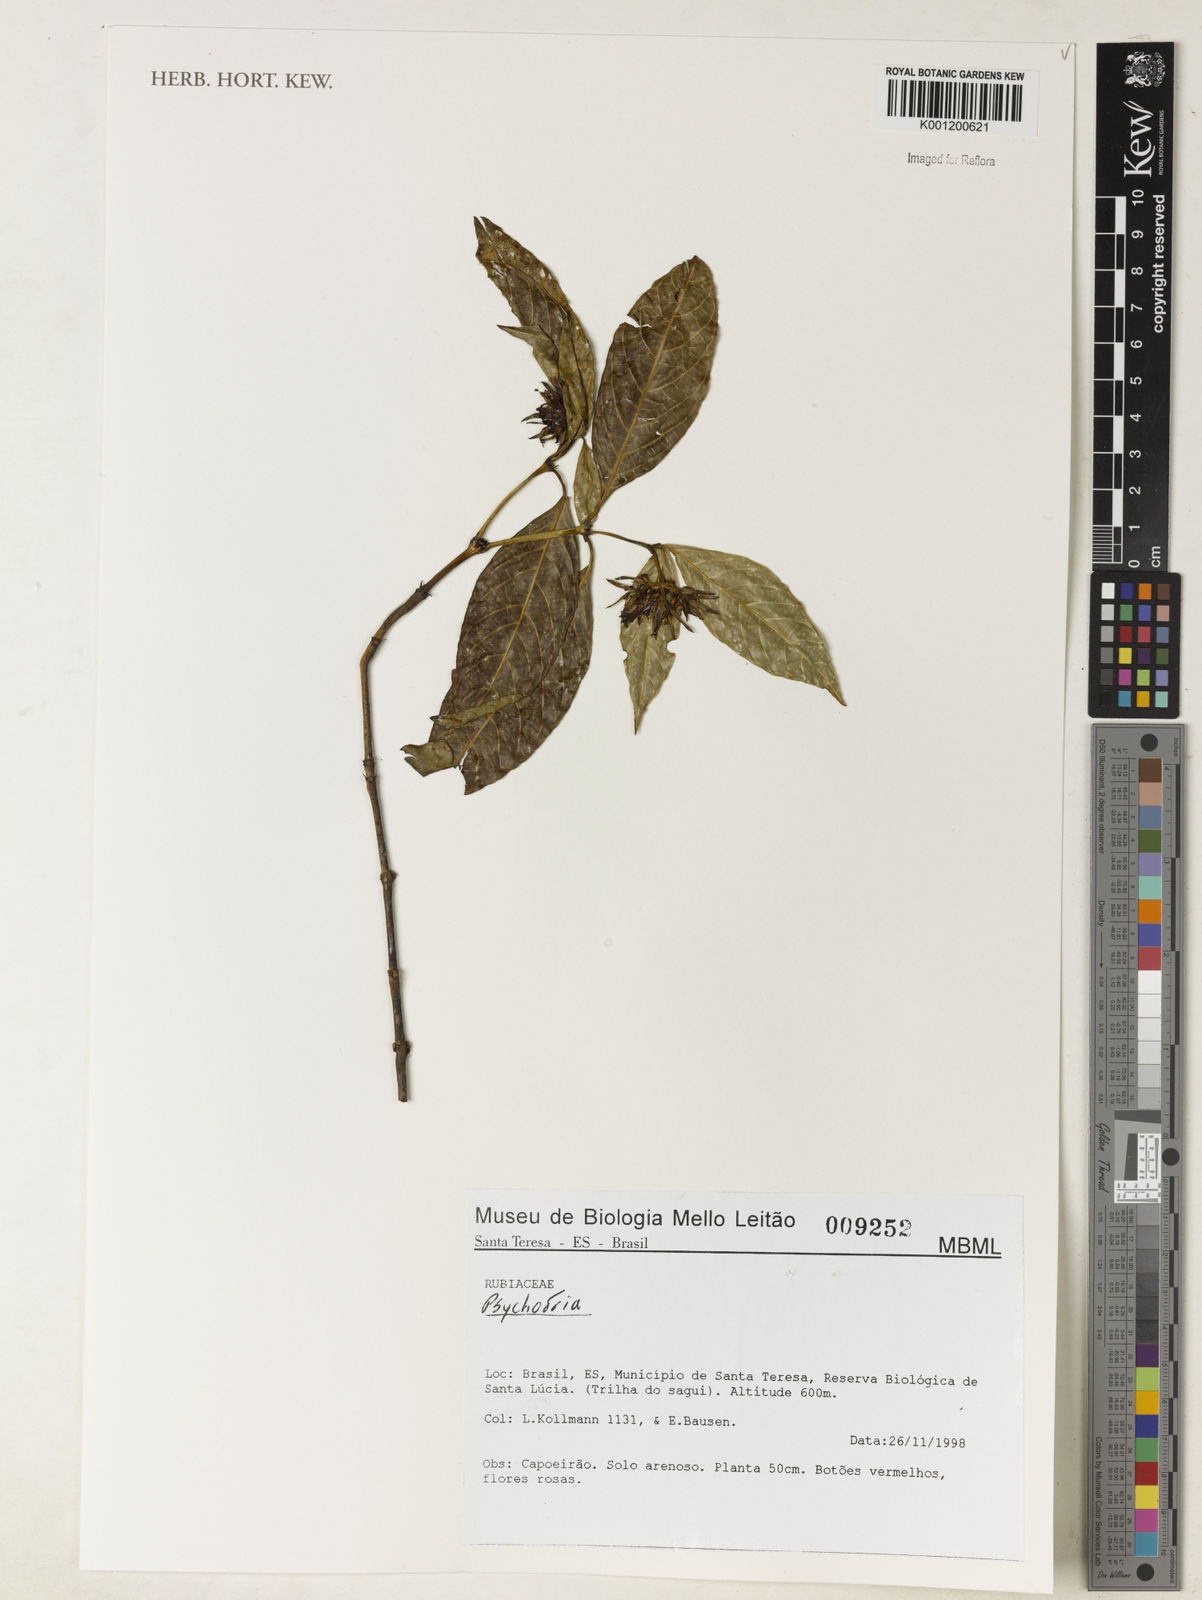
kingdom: Plantae
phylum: Tracheophyta
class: Magnoliopsida
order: Gentianales
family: Rubiaceae
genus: Psychotria
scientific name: Psychotria
